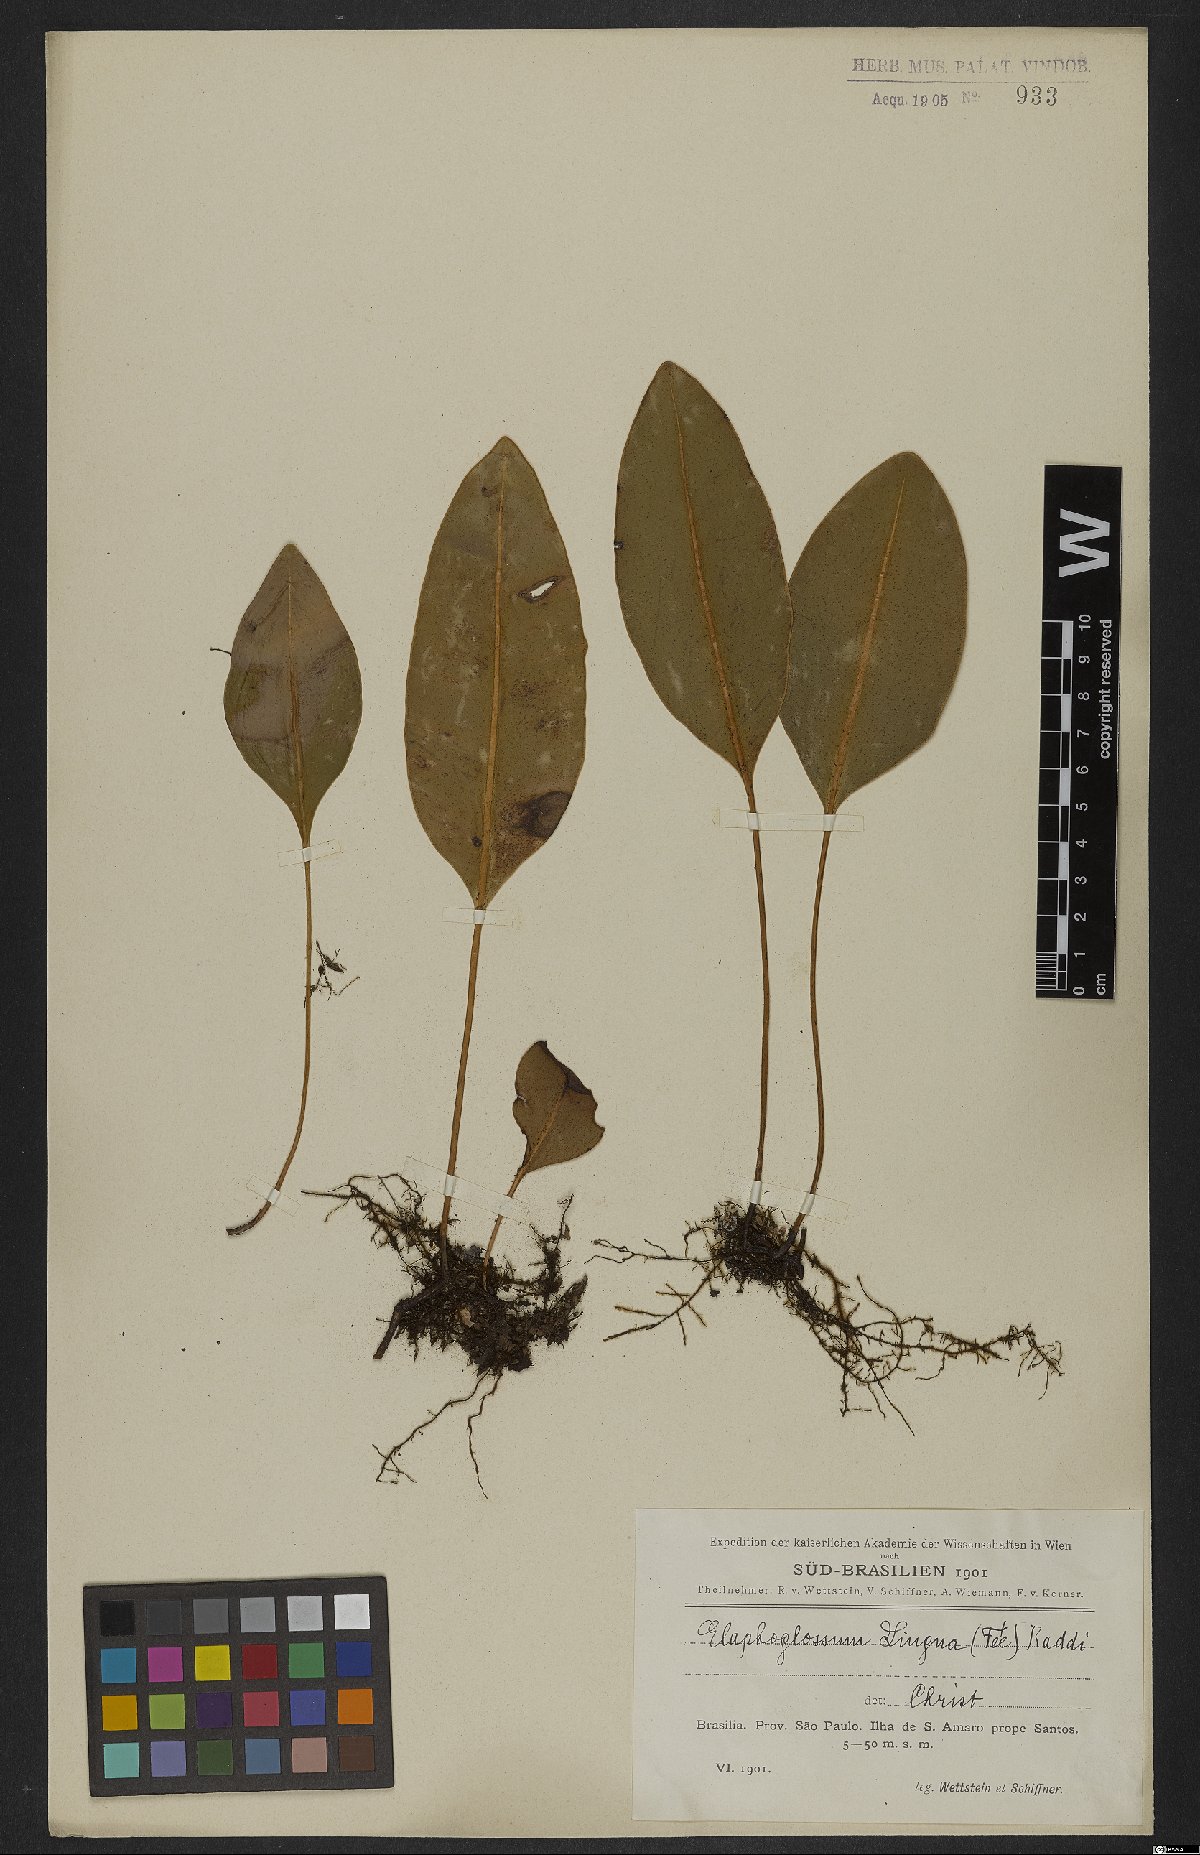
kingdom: Plantae
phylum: Tracheophyta
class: Polypodiopsida
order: Polypodiales
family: Dryopteridaceae
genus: Elaphoglossum
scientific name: Elaphoglossum brachyneuron
